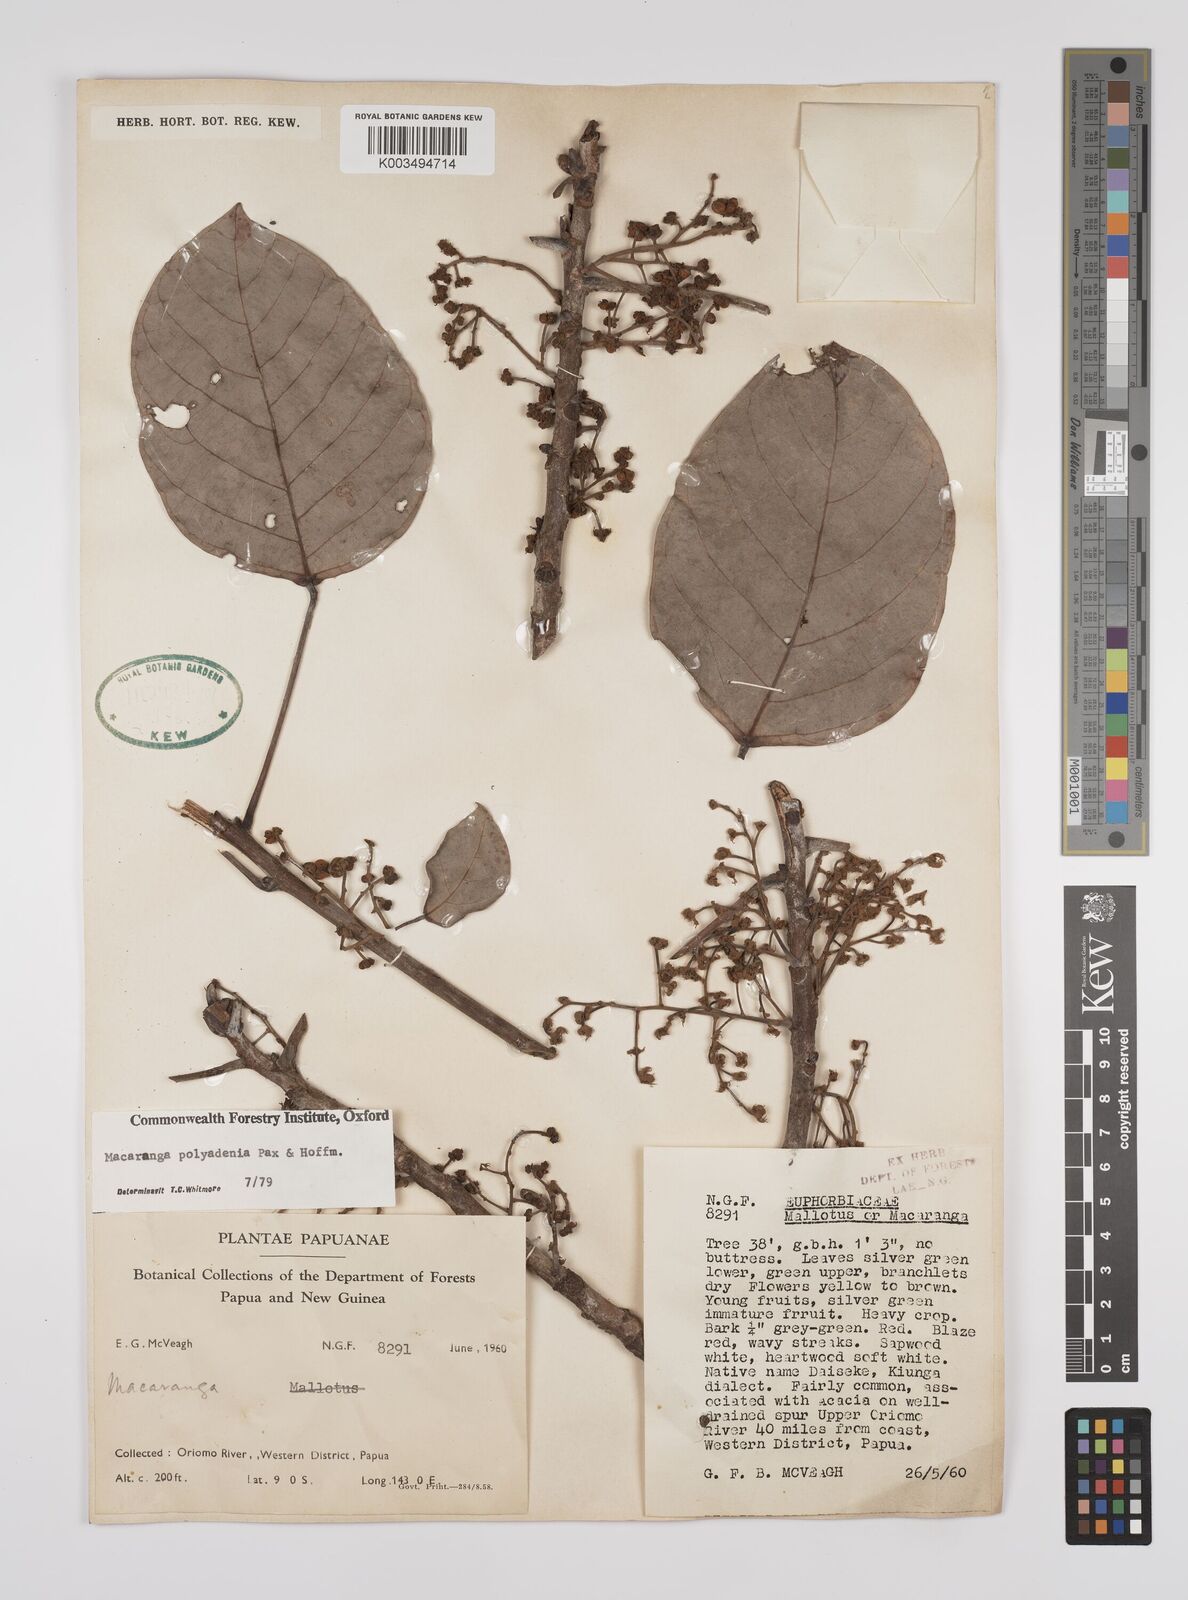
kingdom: Plantae
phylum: Tracheophyta
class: Magnoliopsida
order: Malpighiales
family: Euphorbiaceae
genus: Macaranga
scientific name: Macaranga polyadenia
